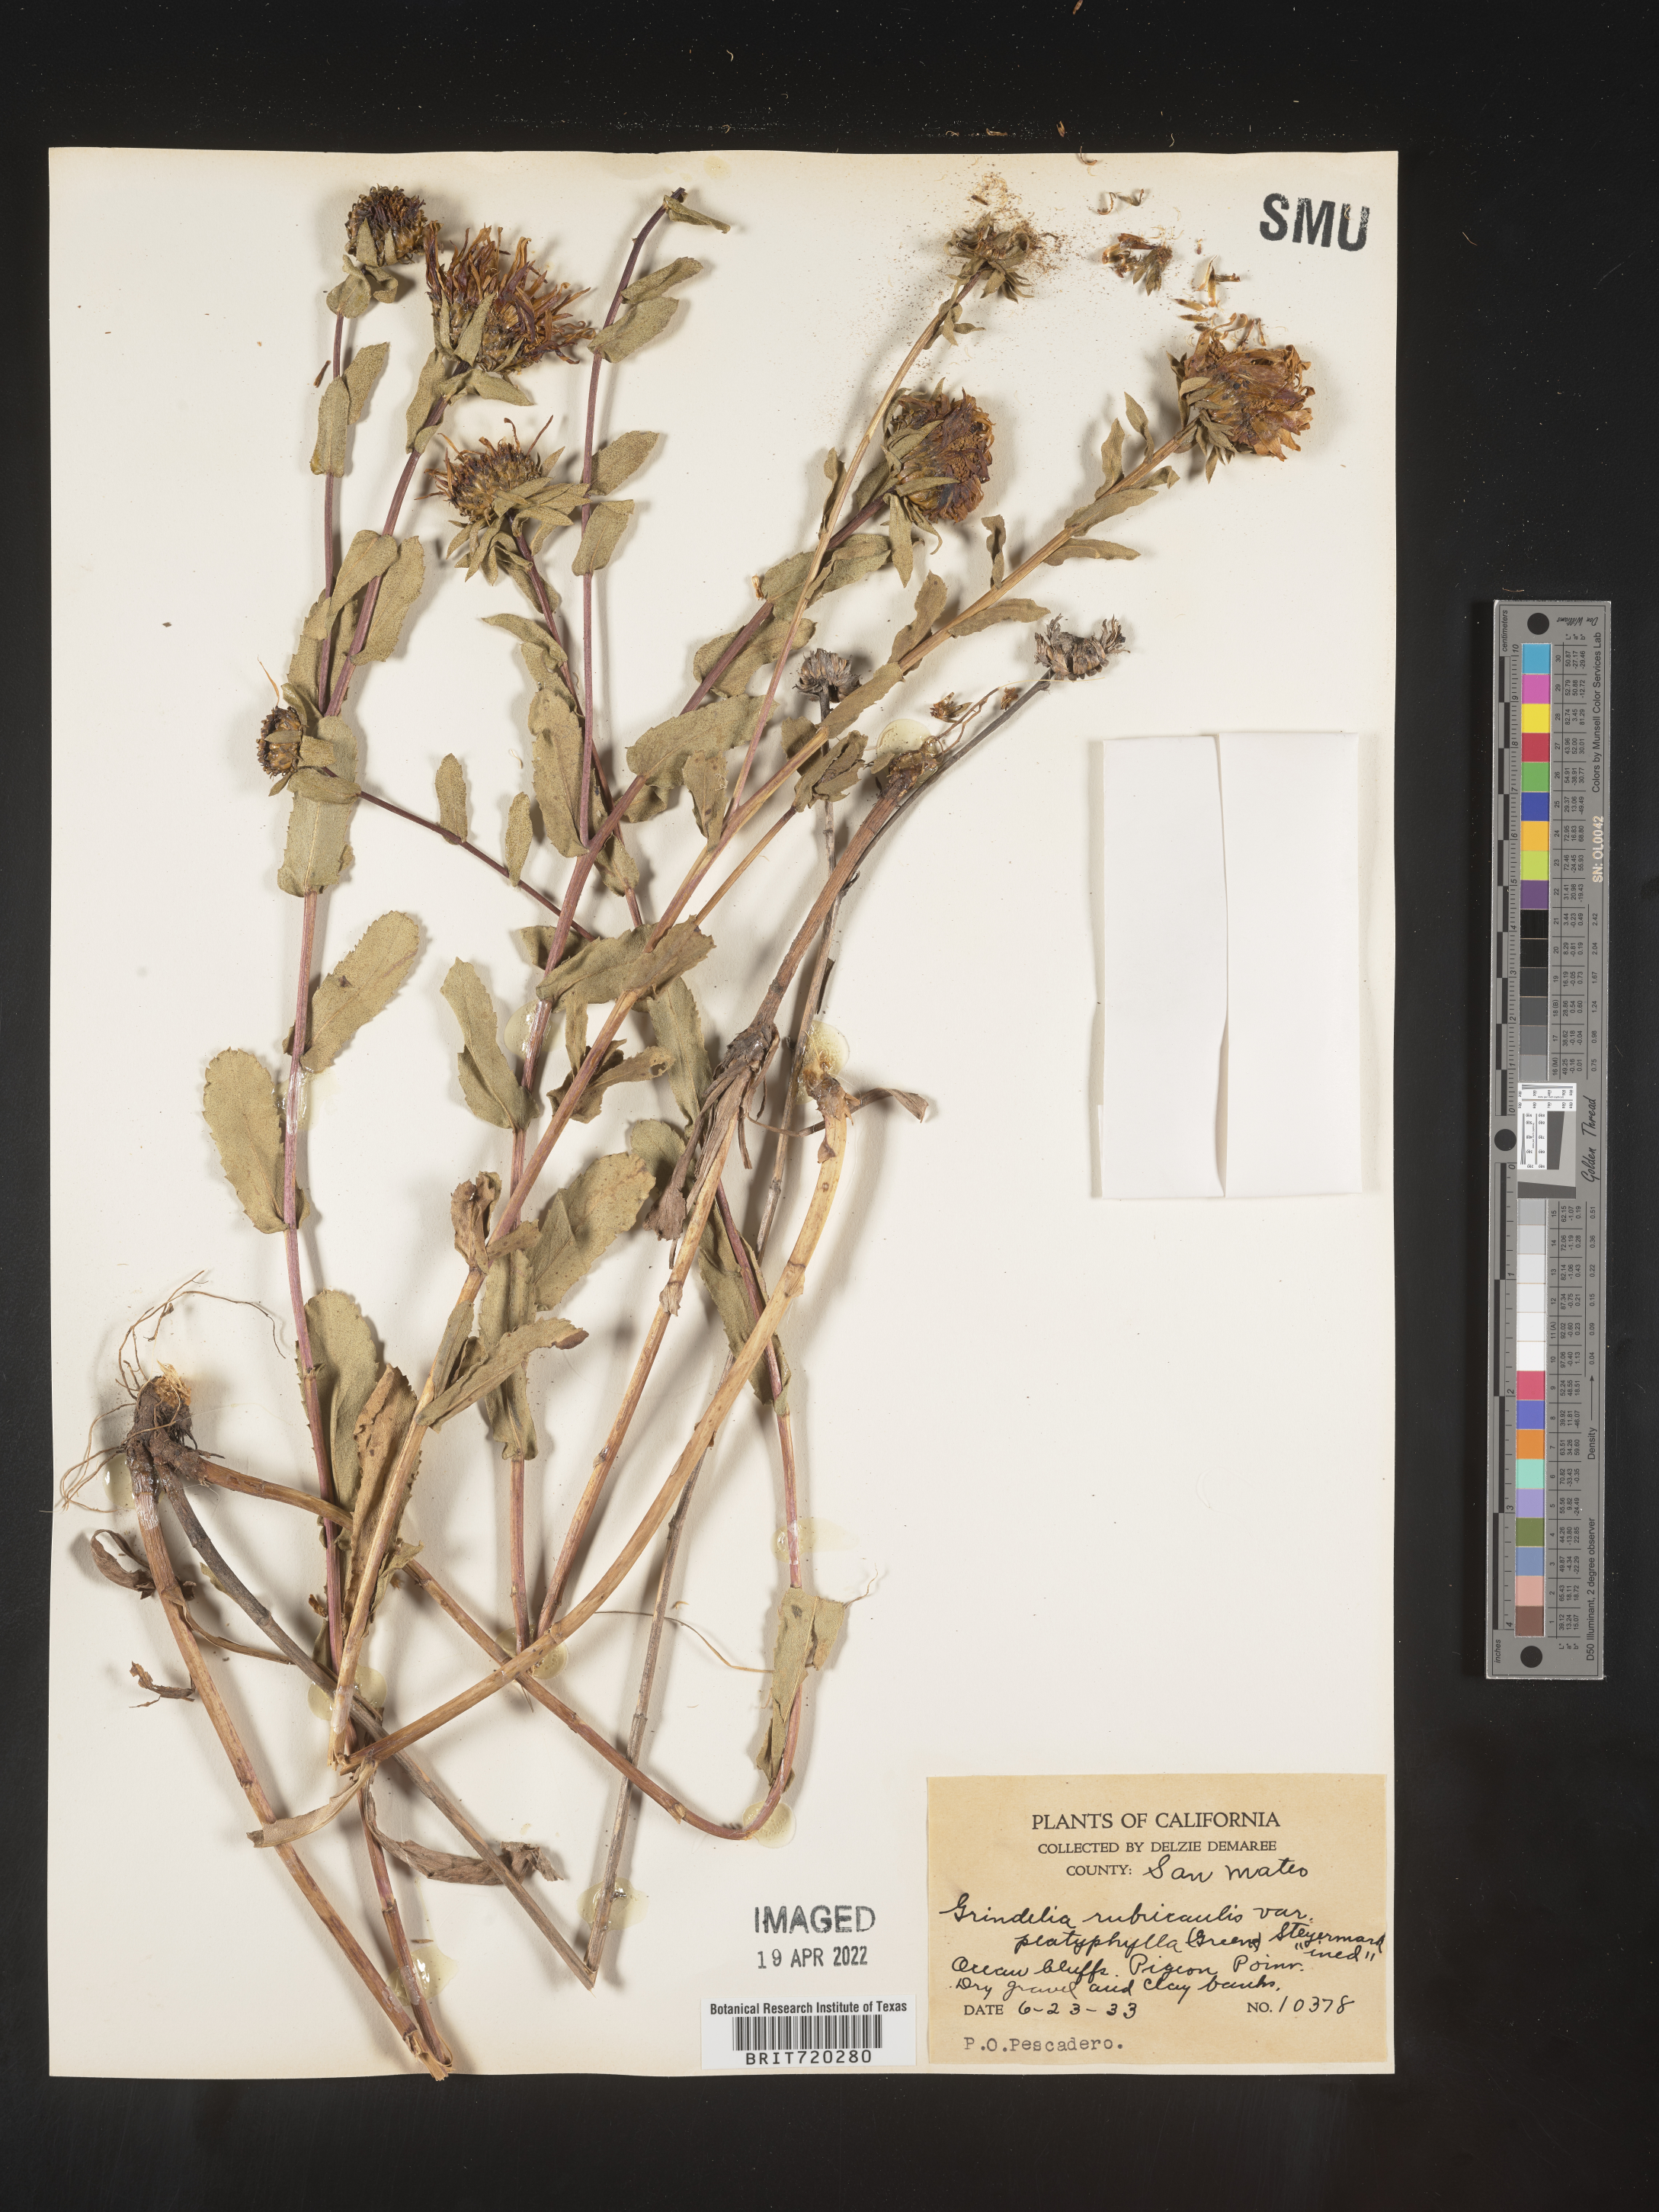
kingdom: Plantae
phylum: Tracheophyta
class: Magnoliopsida
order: Asterales
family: Asteraceae
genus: Grindelia
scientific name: Grindelia
